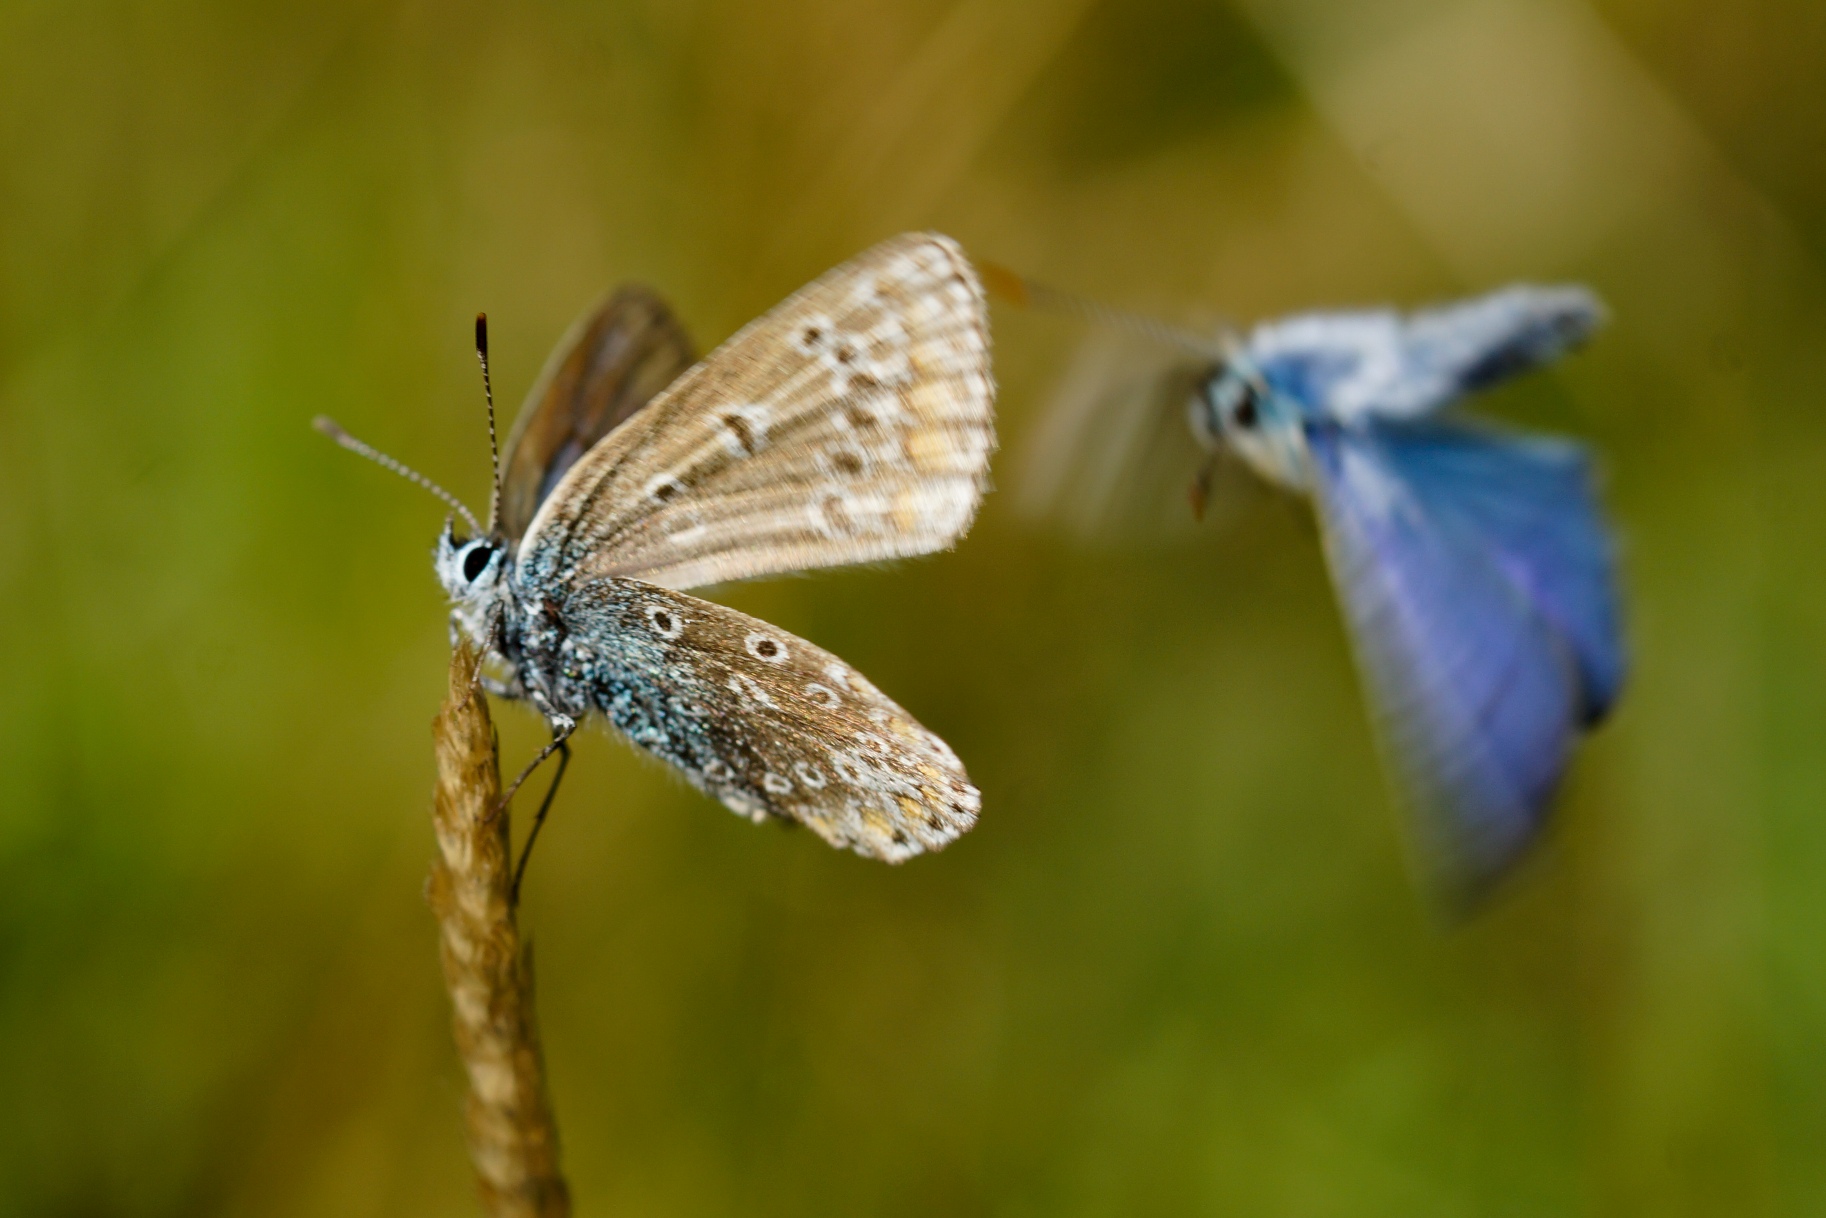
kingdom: Animalia
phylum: Arthropoda
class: Insecta
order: Lepidoptera
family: Lycaenidae
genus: Polyommatus
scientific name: Polyommatus icarus
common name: Almindelig blåfugl
